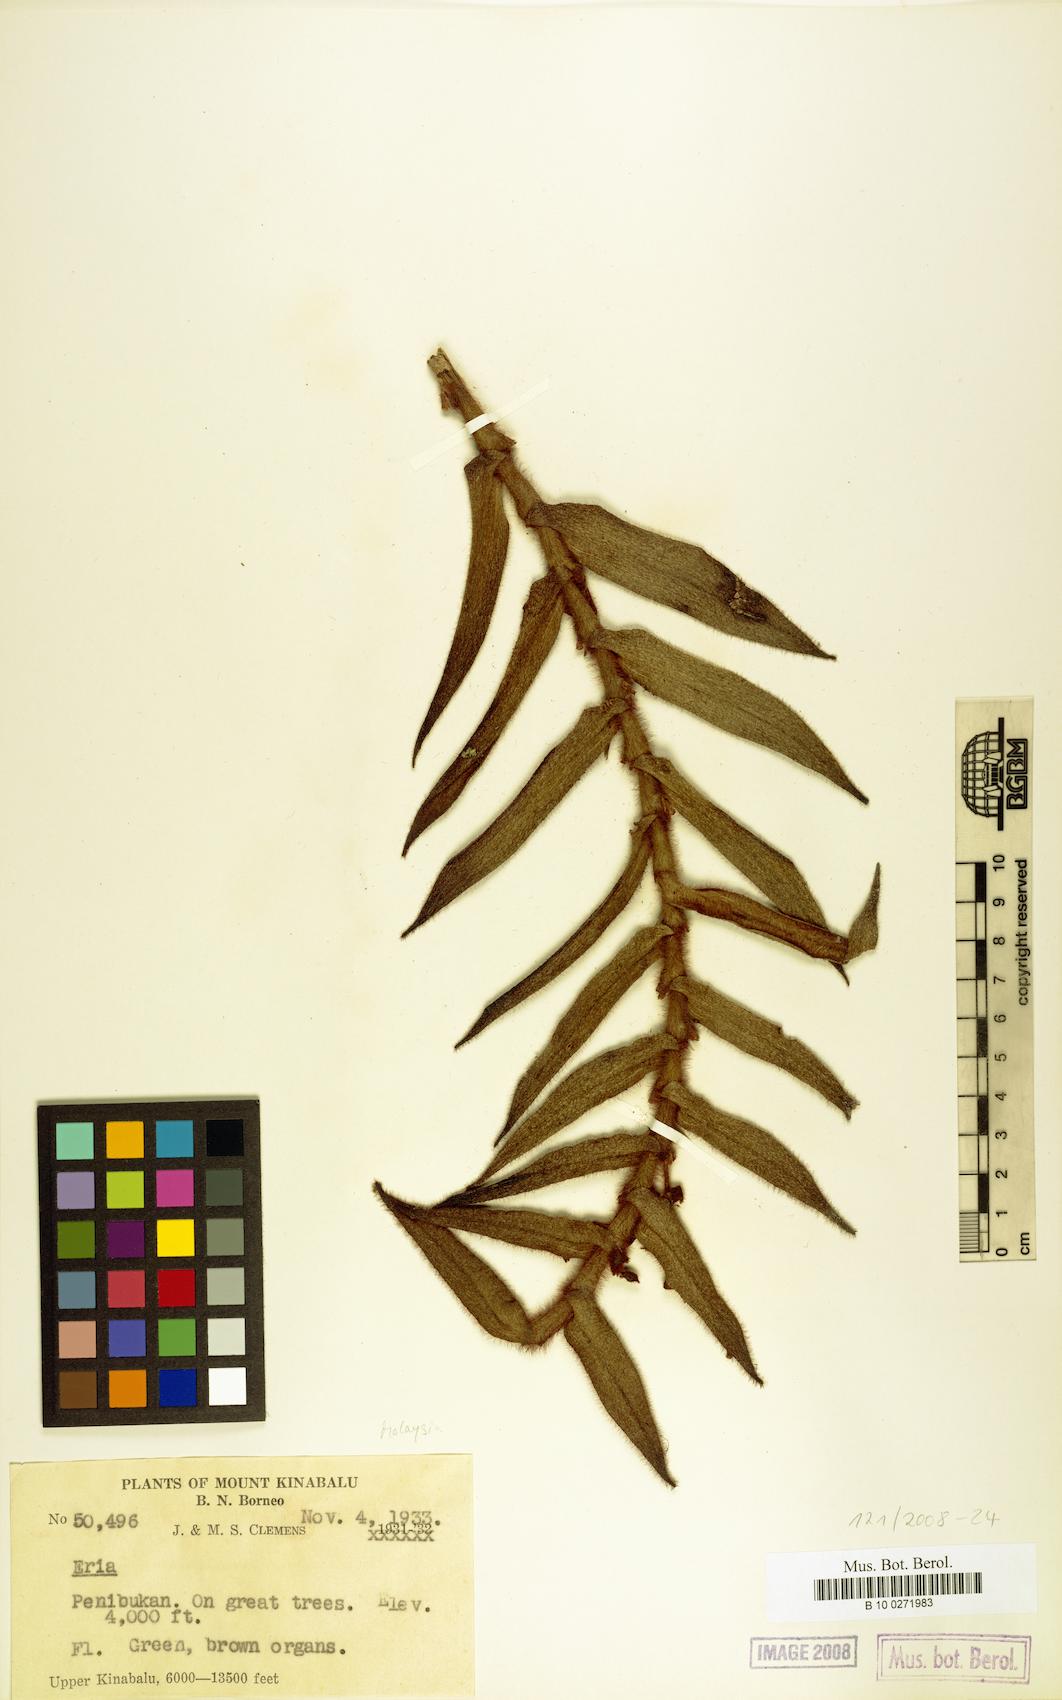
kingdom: Plantae
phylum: Tracheophyta
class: Liliopsida
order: Asparagales
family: Orchidaceae
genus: Eria
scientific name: Eria
